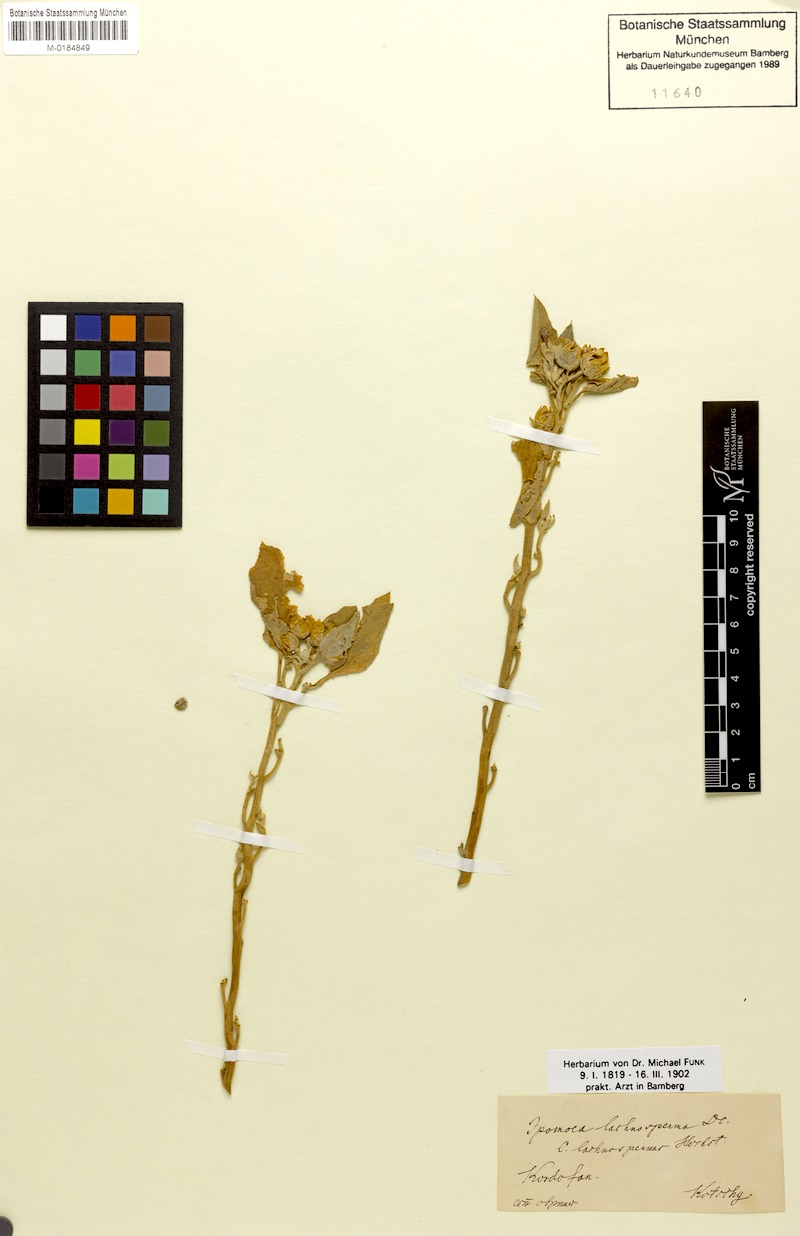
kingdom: Plantae
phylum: Tracheophyta
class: Magnoliopsida
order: Solanales
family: Convolvulaceae
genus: Astripomoea
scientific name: Astripomoea lachnosperma
